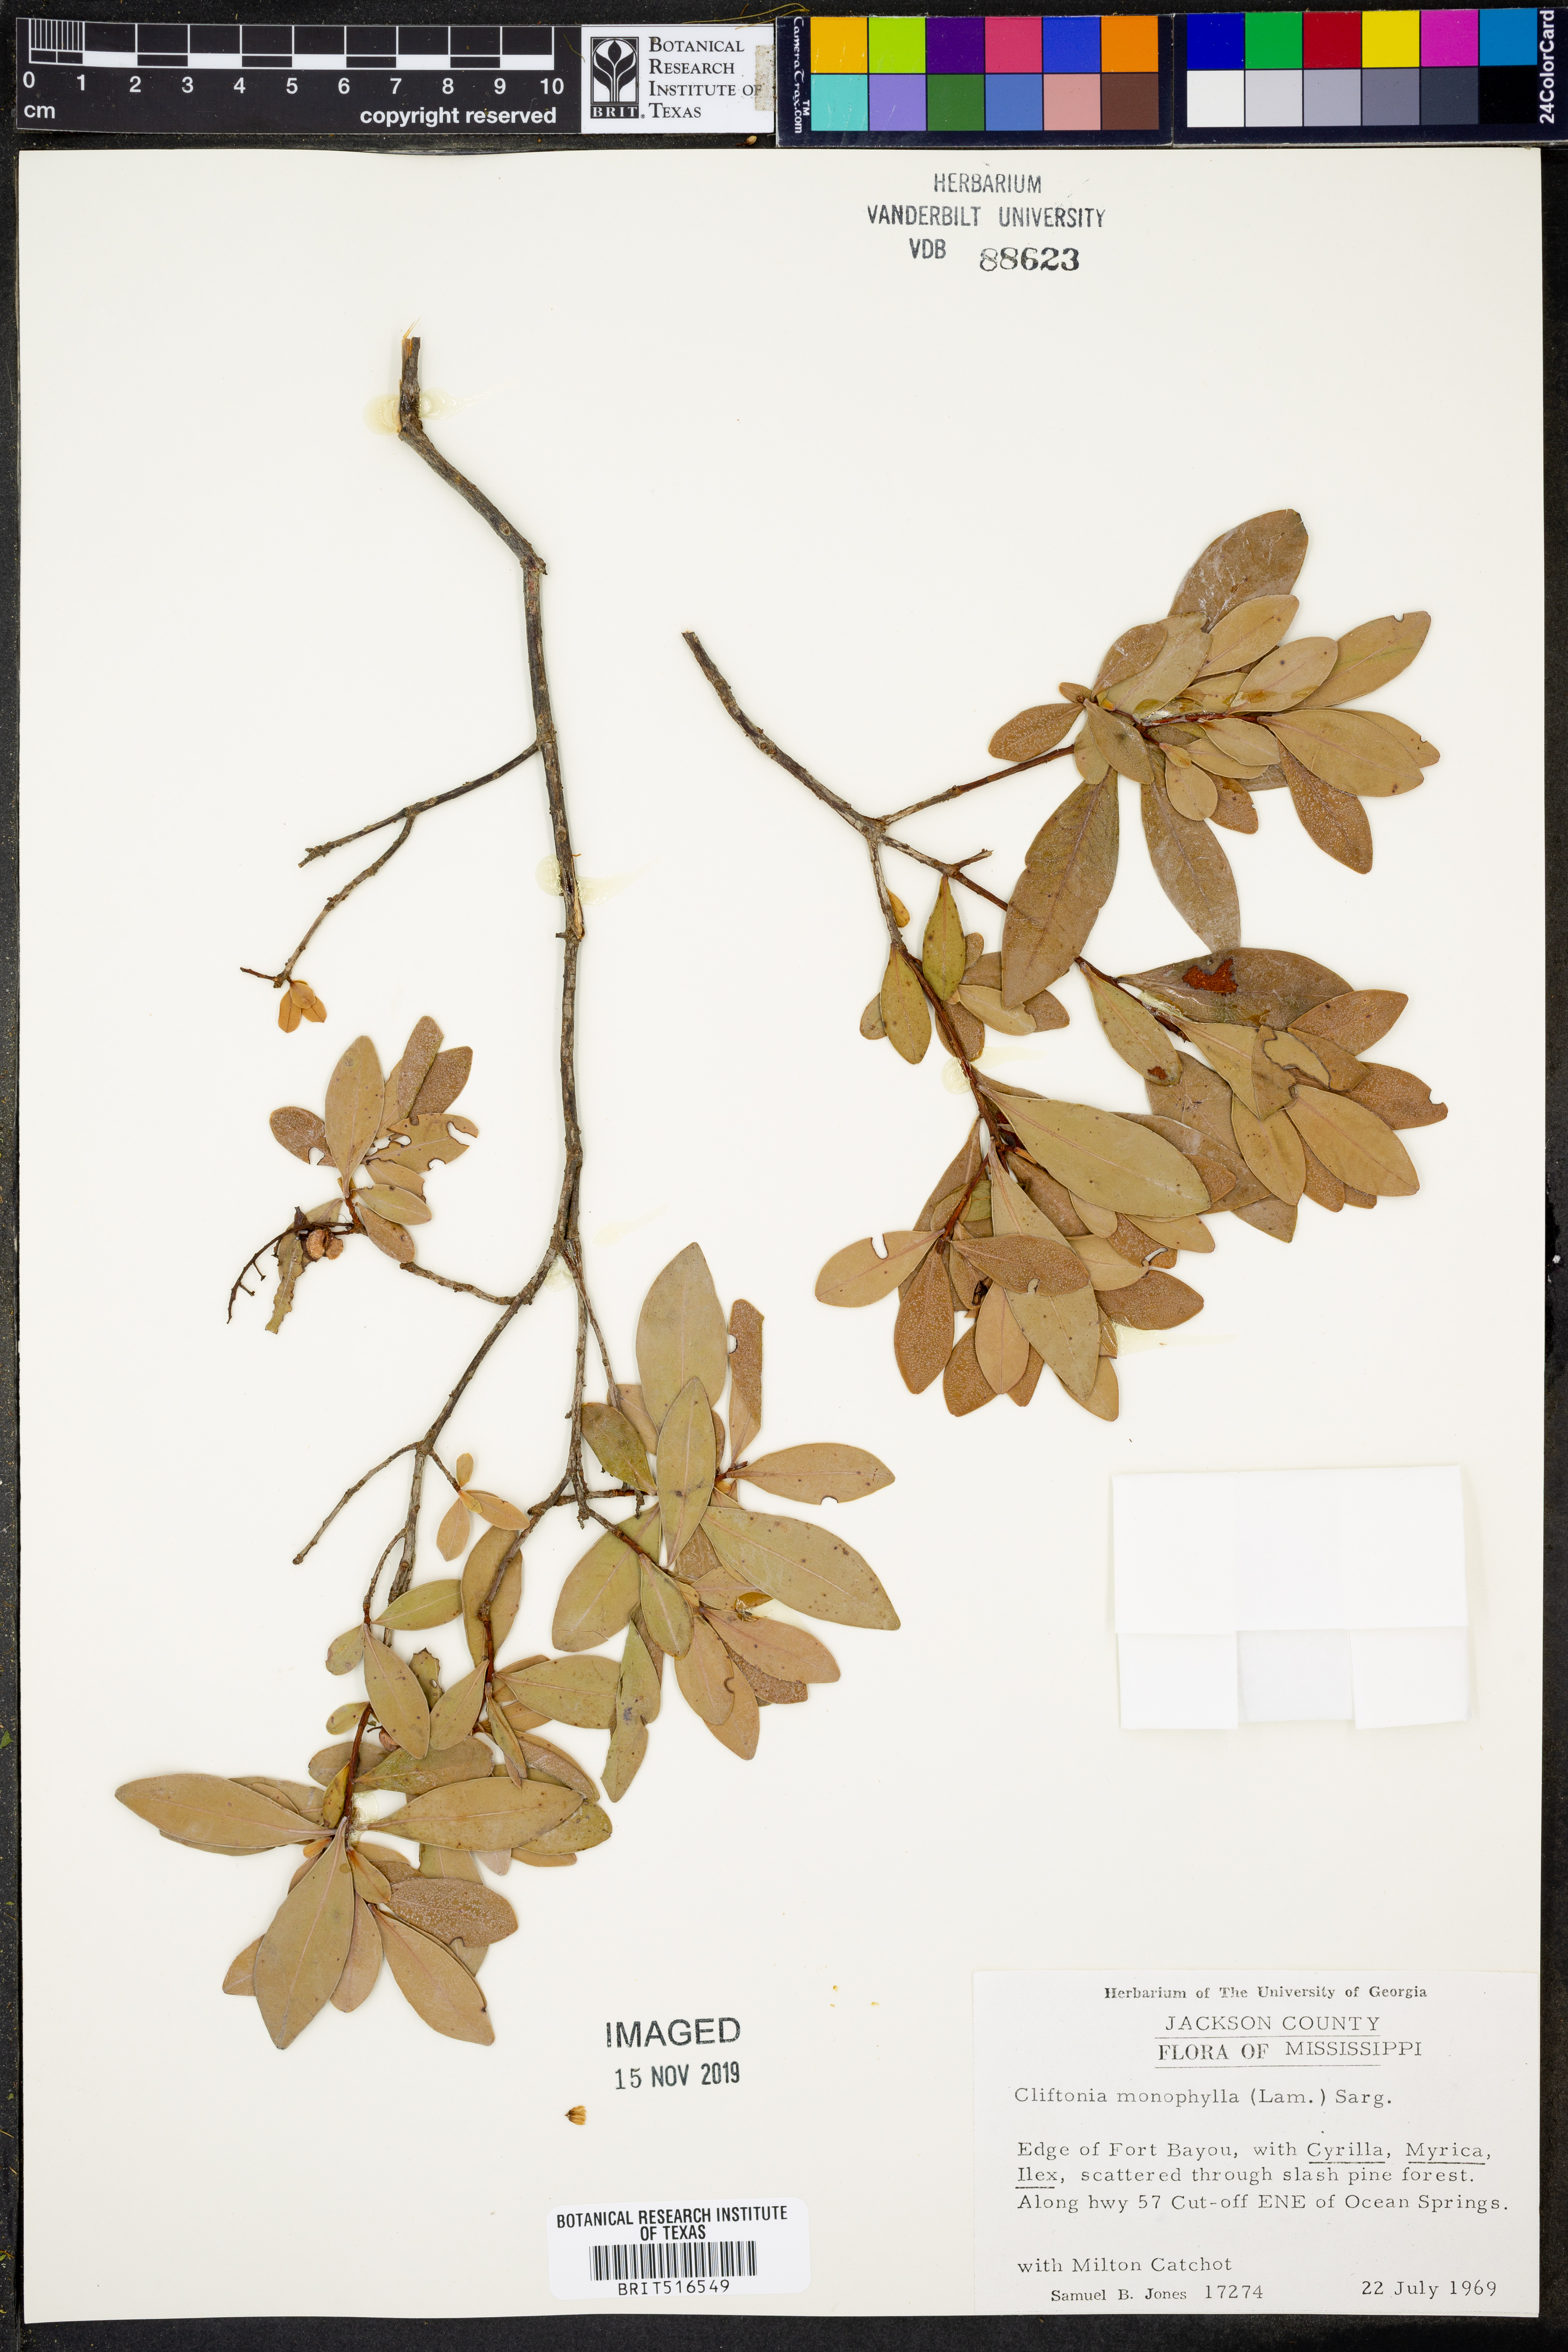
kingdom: Plantae
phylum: Tracheophyta
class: Magnoliopsida
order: Ericales
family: Cyrillaceae
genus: Cliftonia
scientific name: Cliftonia monophylla
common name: Titi
